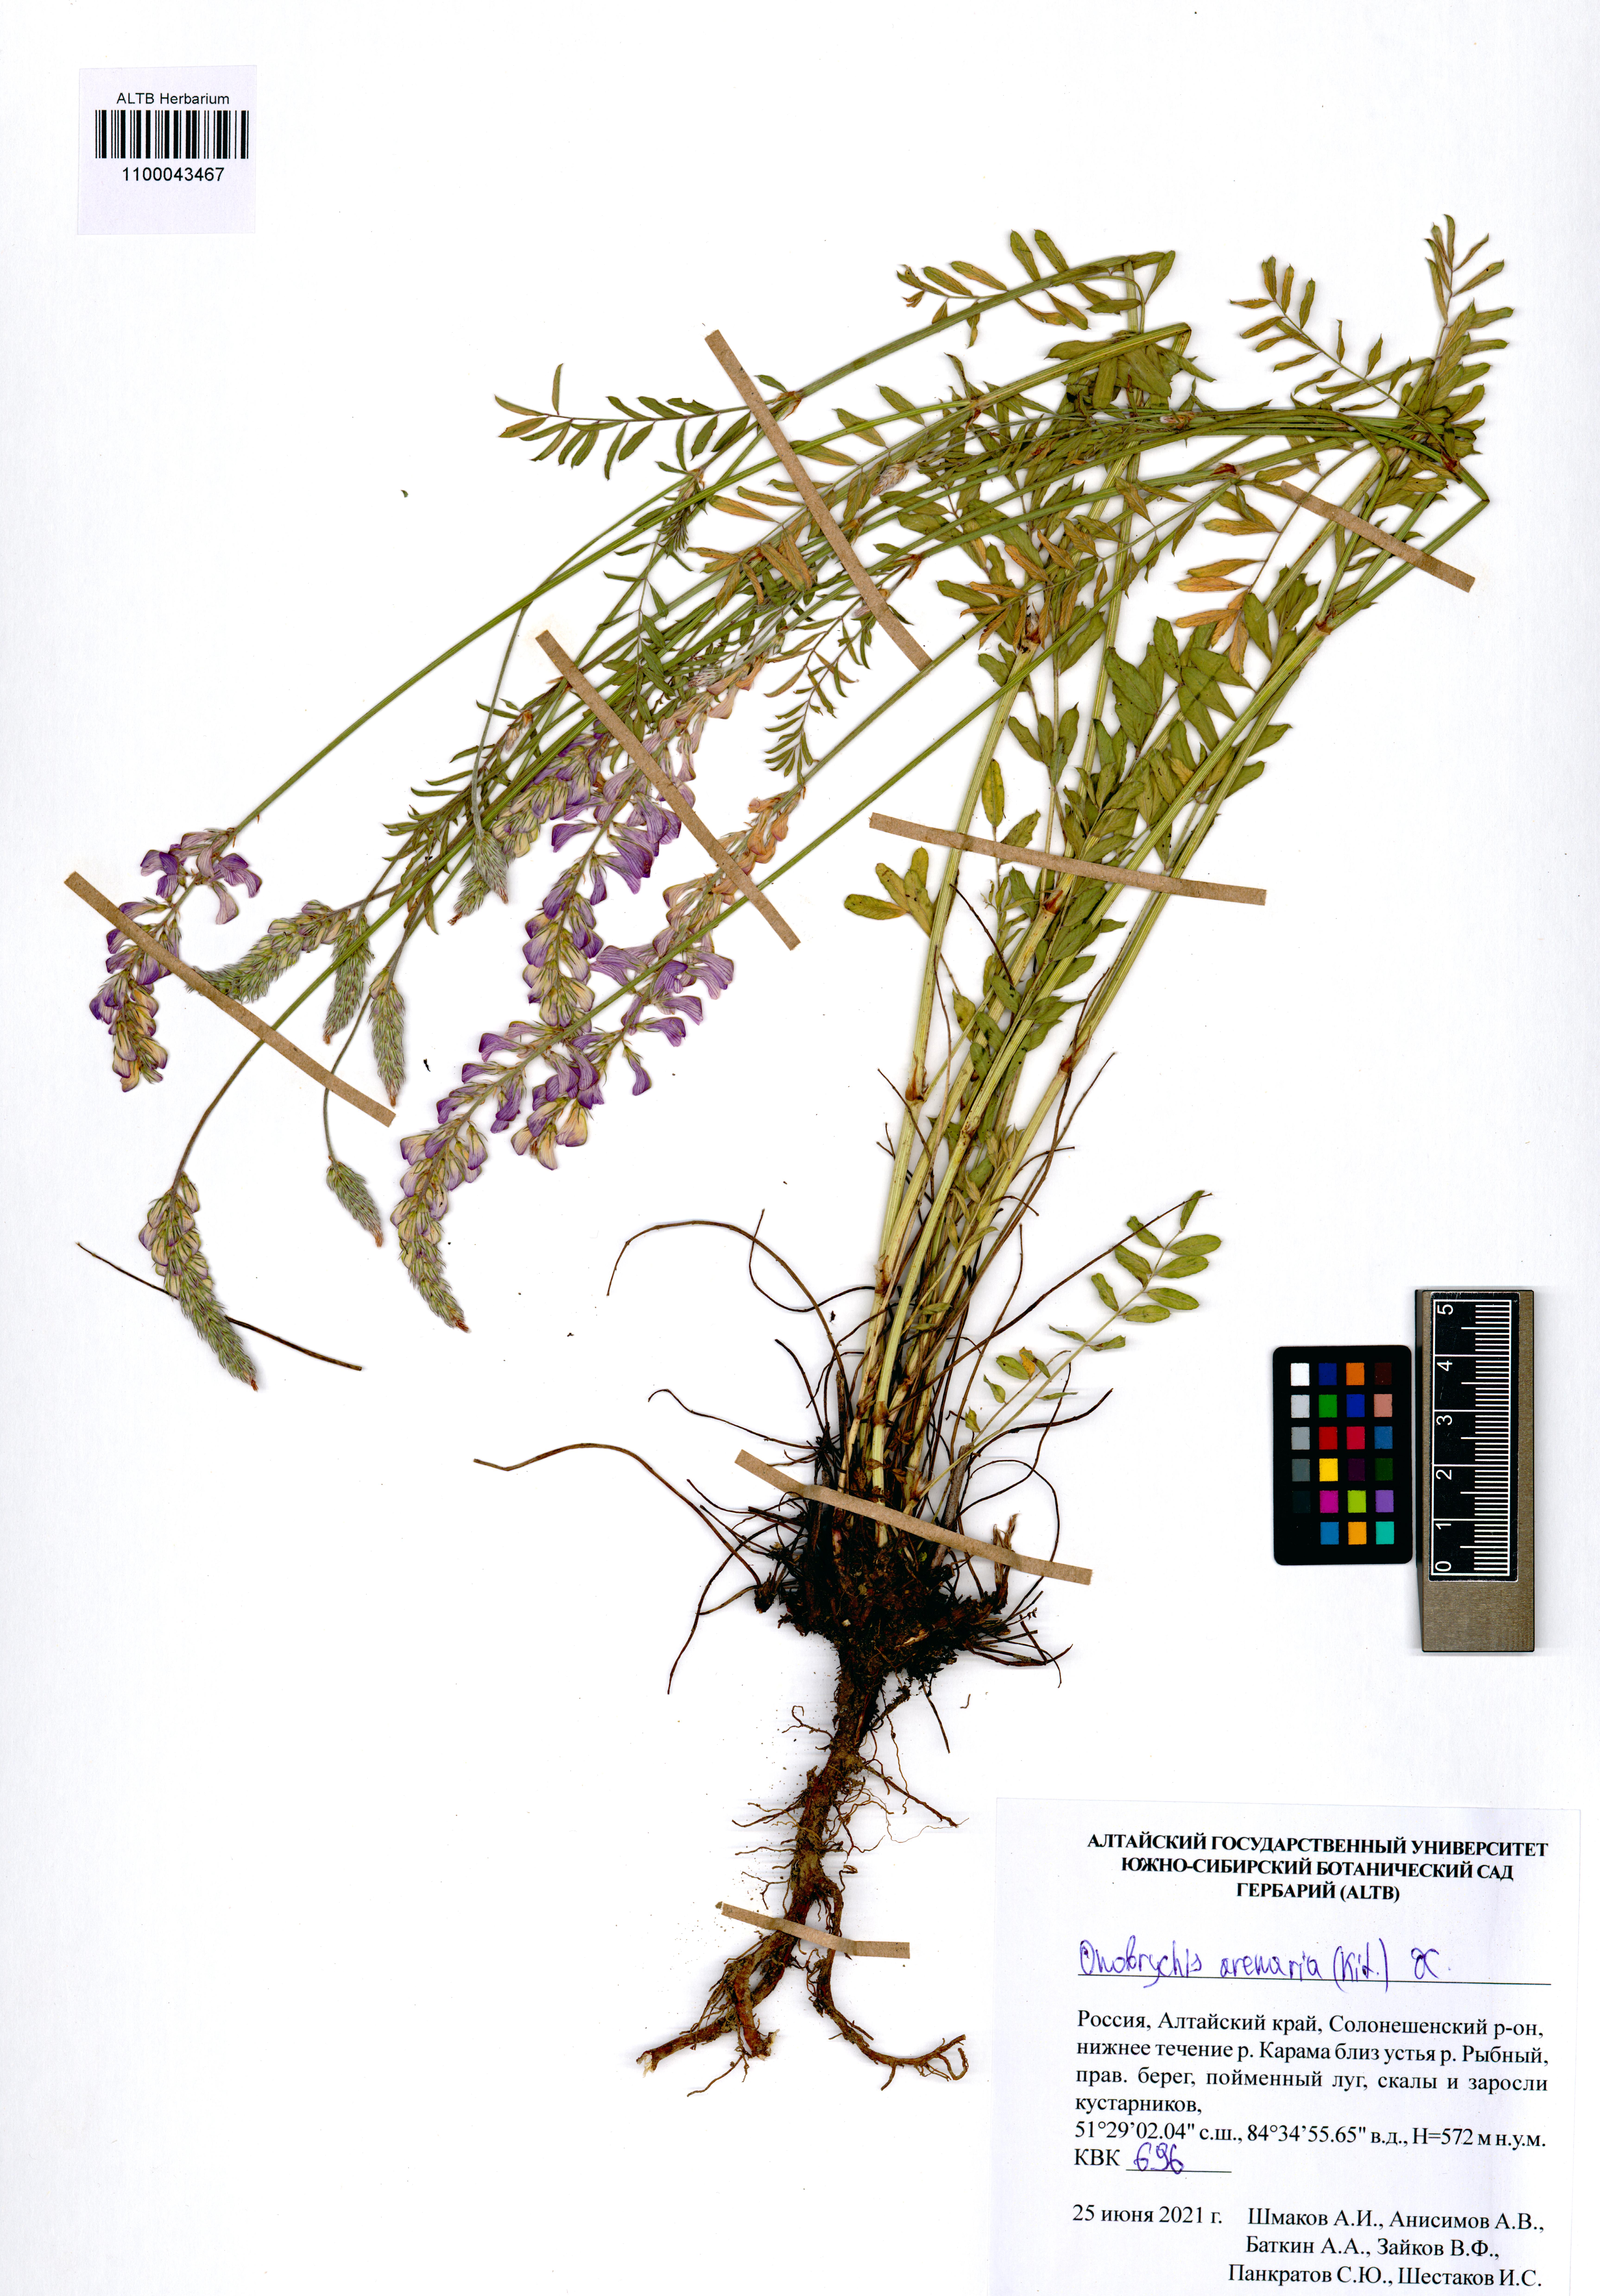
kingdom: Plantae
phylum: Tracheophyta
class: Magnoliopsida
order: Fabales
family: Fabaceae
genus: Onobrychis
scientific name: Onobrychis arenaria
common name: Sand esparcet
